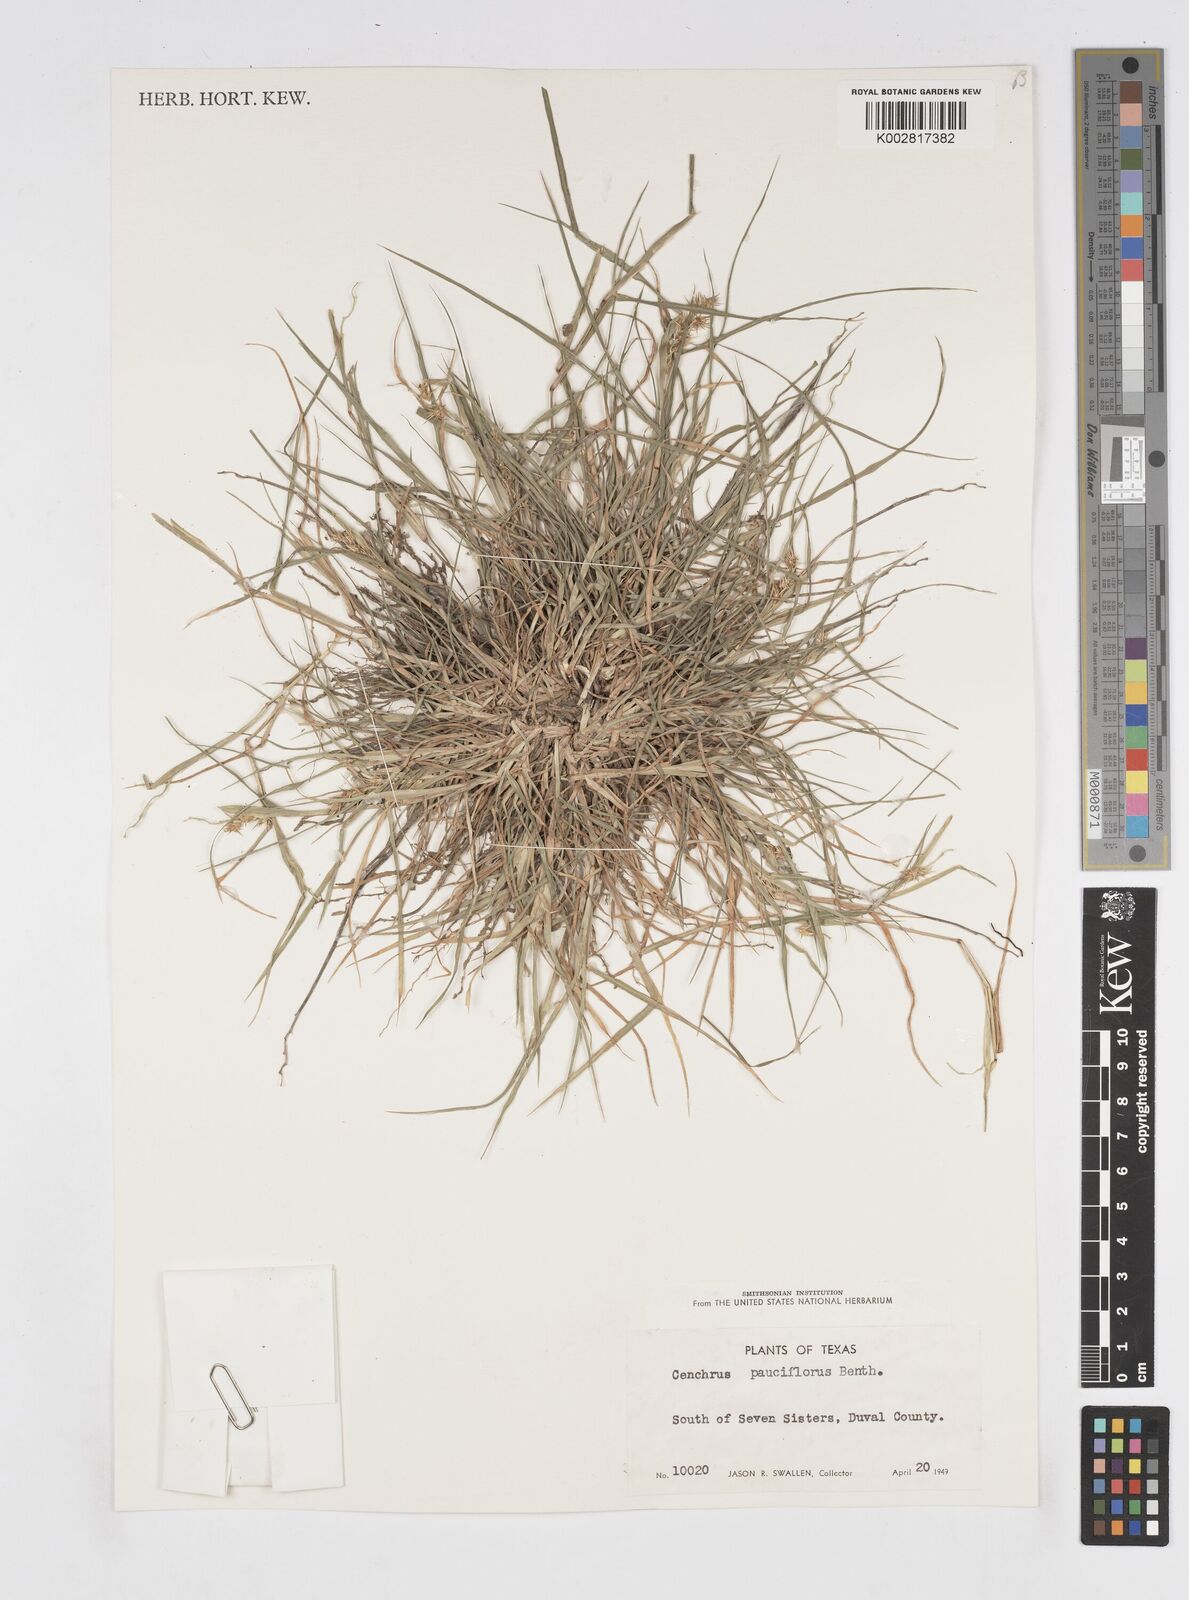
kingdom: Plantae
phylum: Tracheophyta
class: Liliopsida
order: Poales
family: Poaceae
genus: Cenchrus
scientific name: Cenchrus longispinus
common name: Mat sandbur
